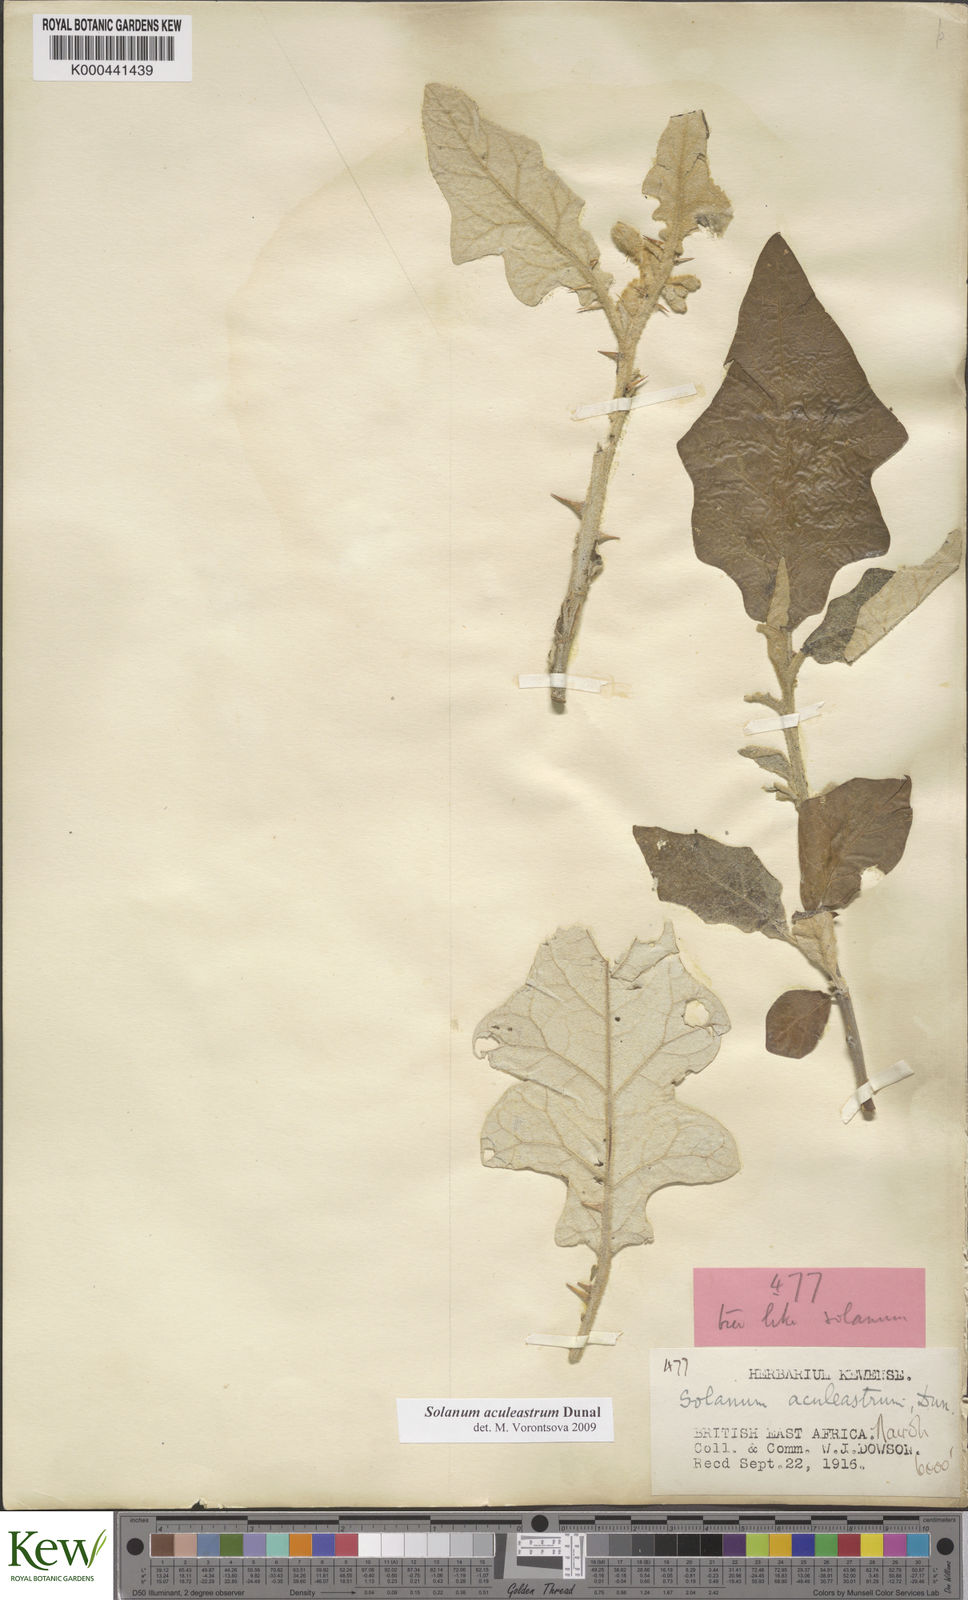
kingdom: Plantae
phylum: Tracheophyta
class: Magnoliopsida
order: Solanales
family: Solanaceae
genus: Solanum
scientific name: Solanum aculeastrum
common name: Goat bitter-apple
